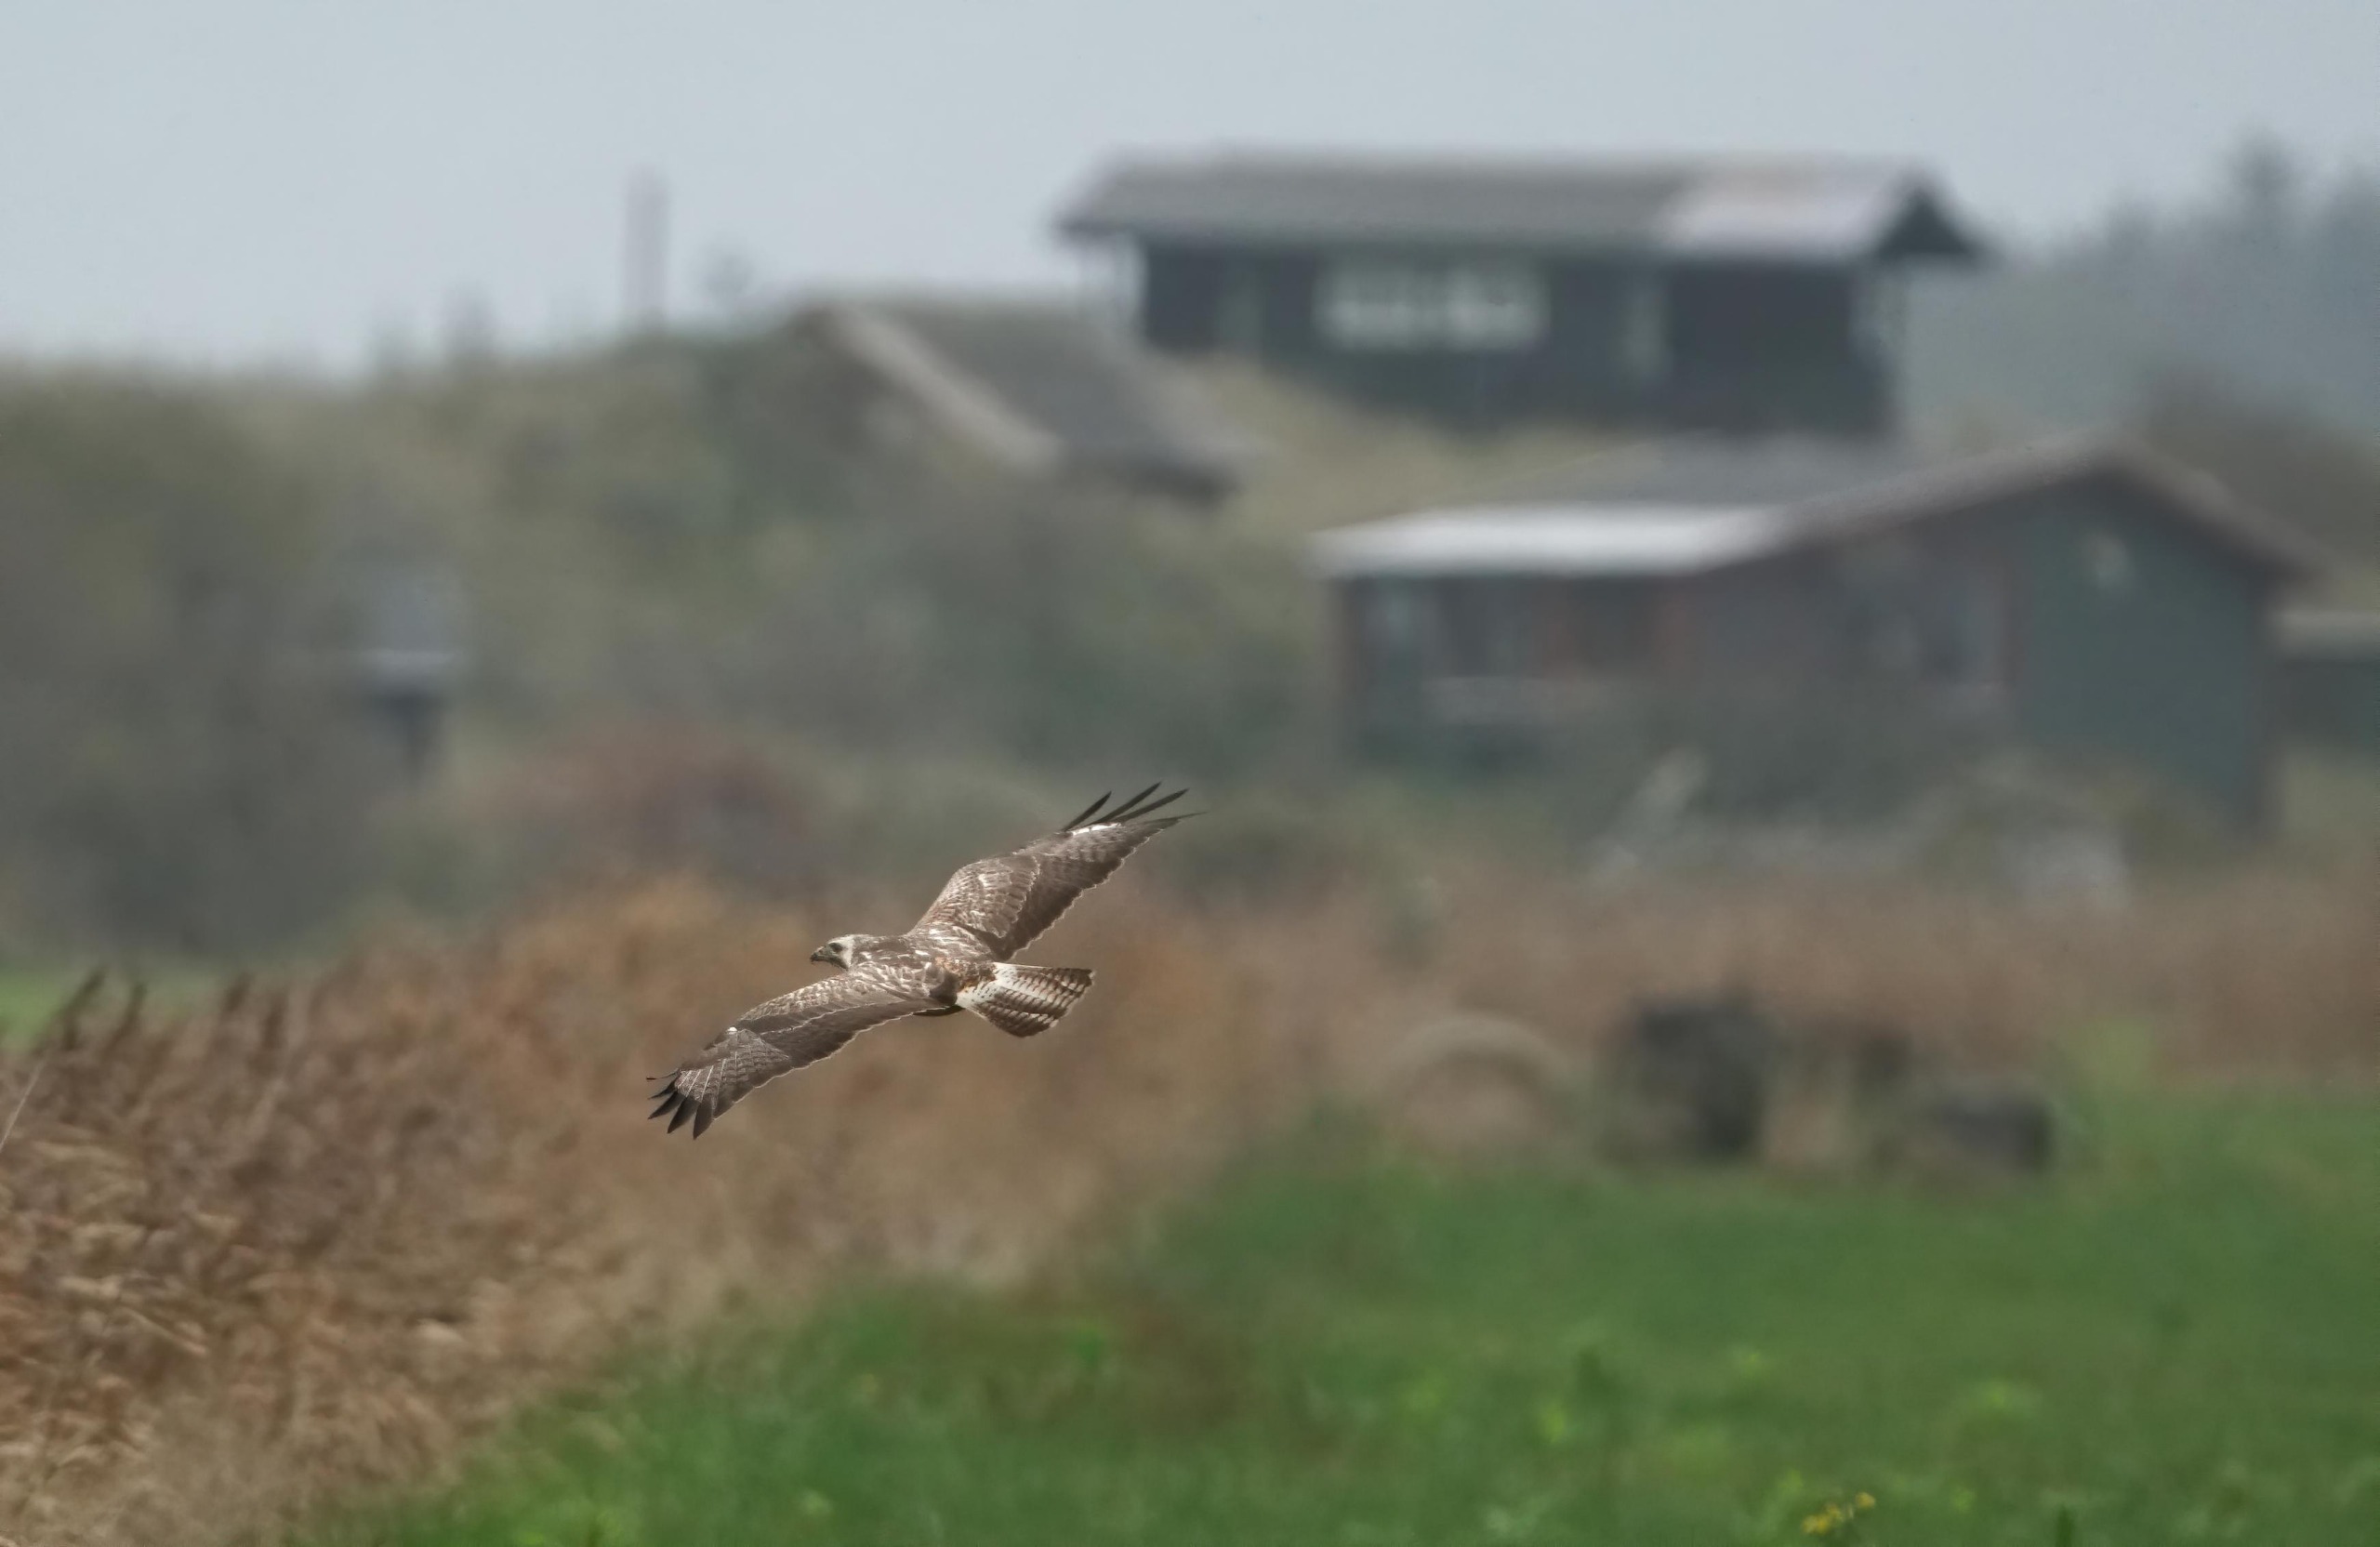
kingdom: Animalia
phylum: Chordata
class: Aves
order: Accipitriformes
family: Accipitridae
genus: Buteo
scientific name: Buteo buteo
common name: Musvåge
